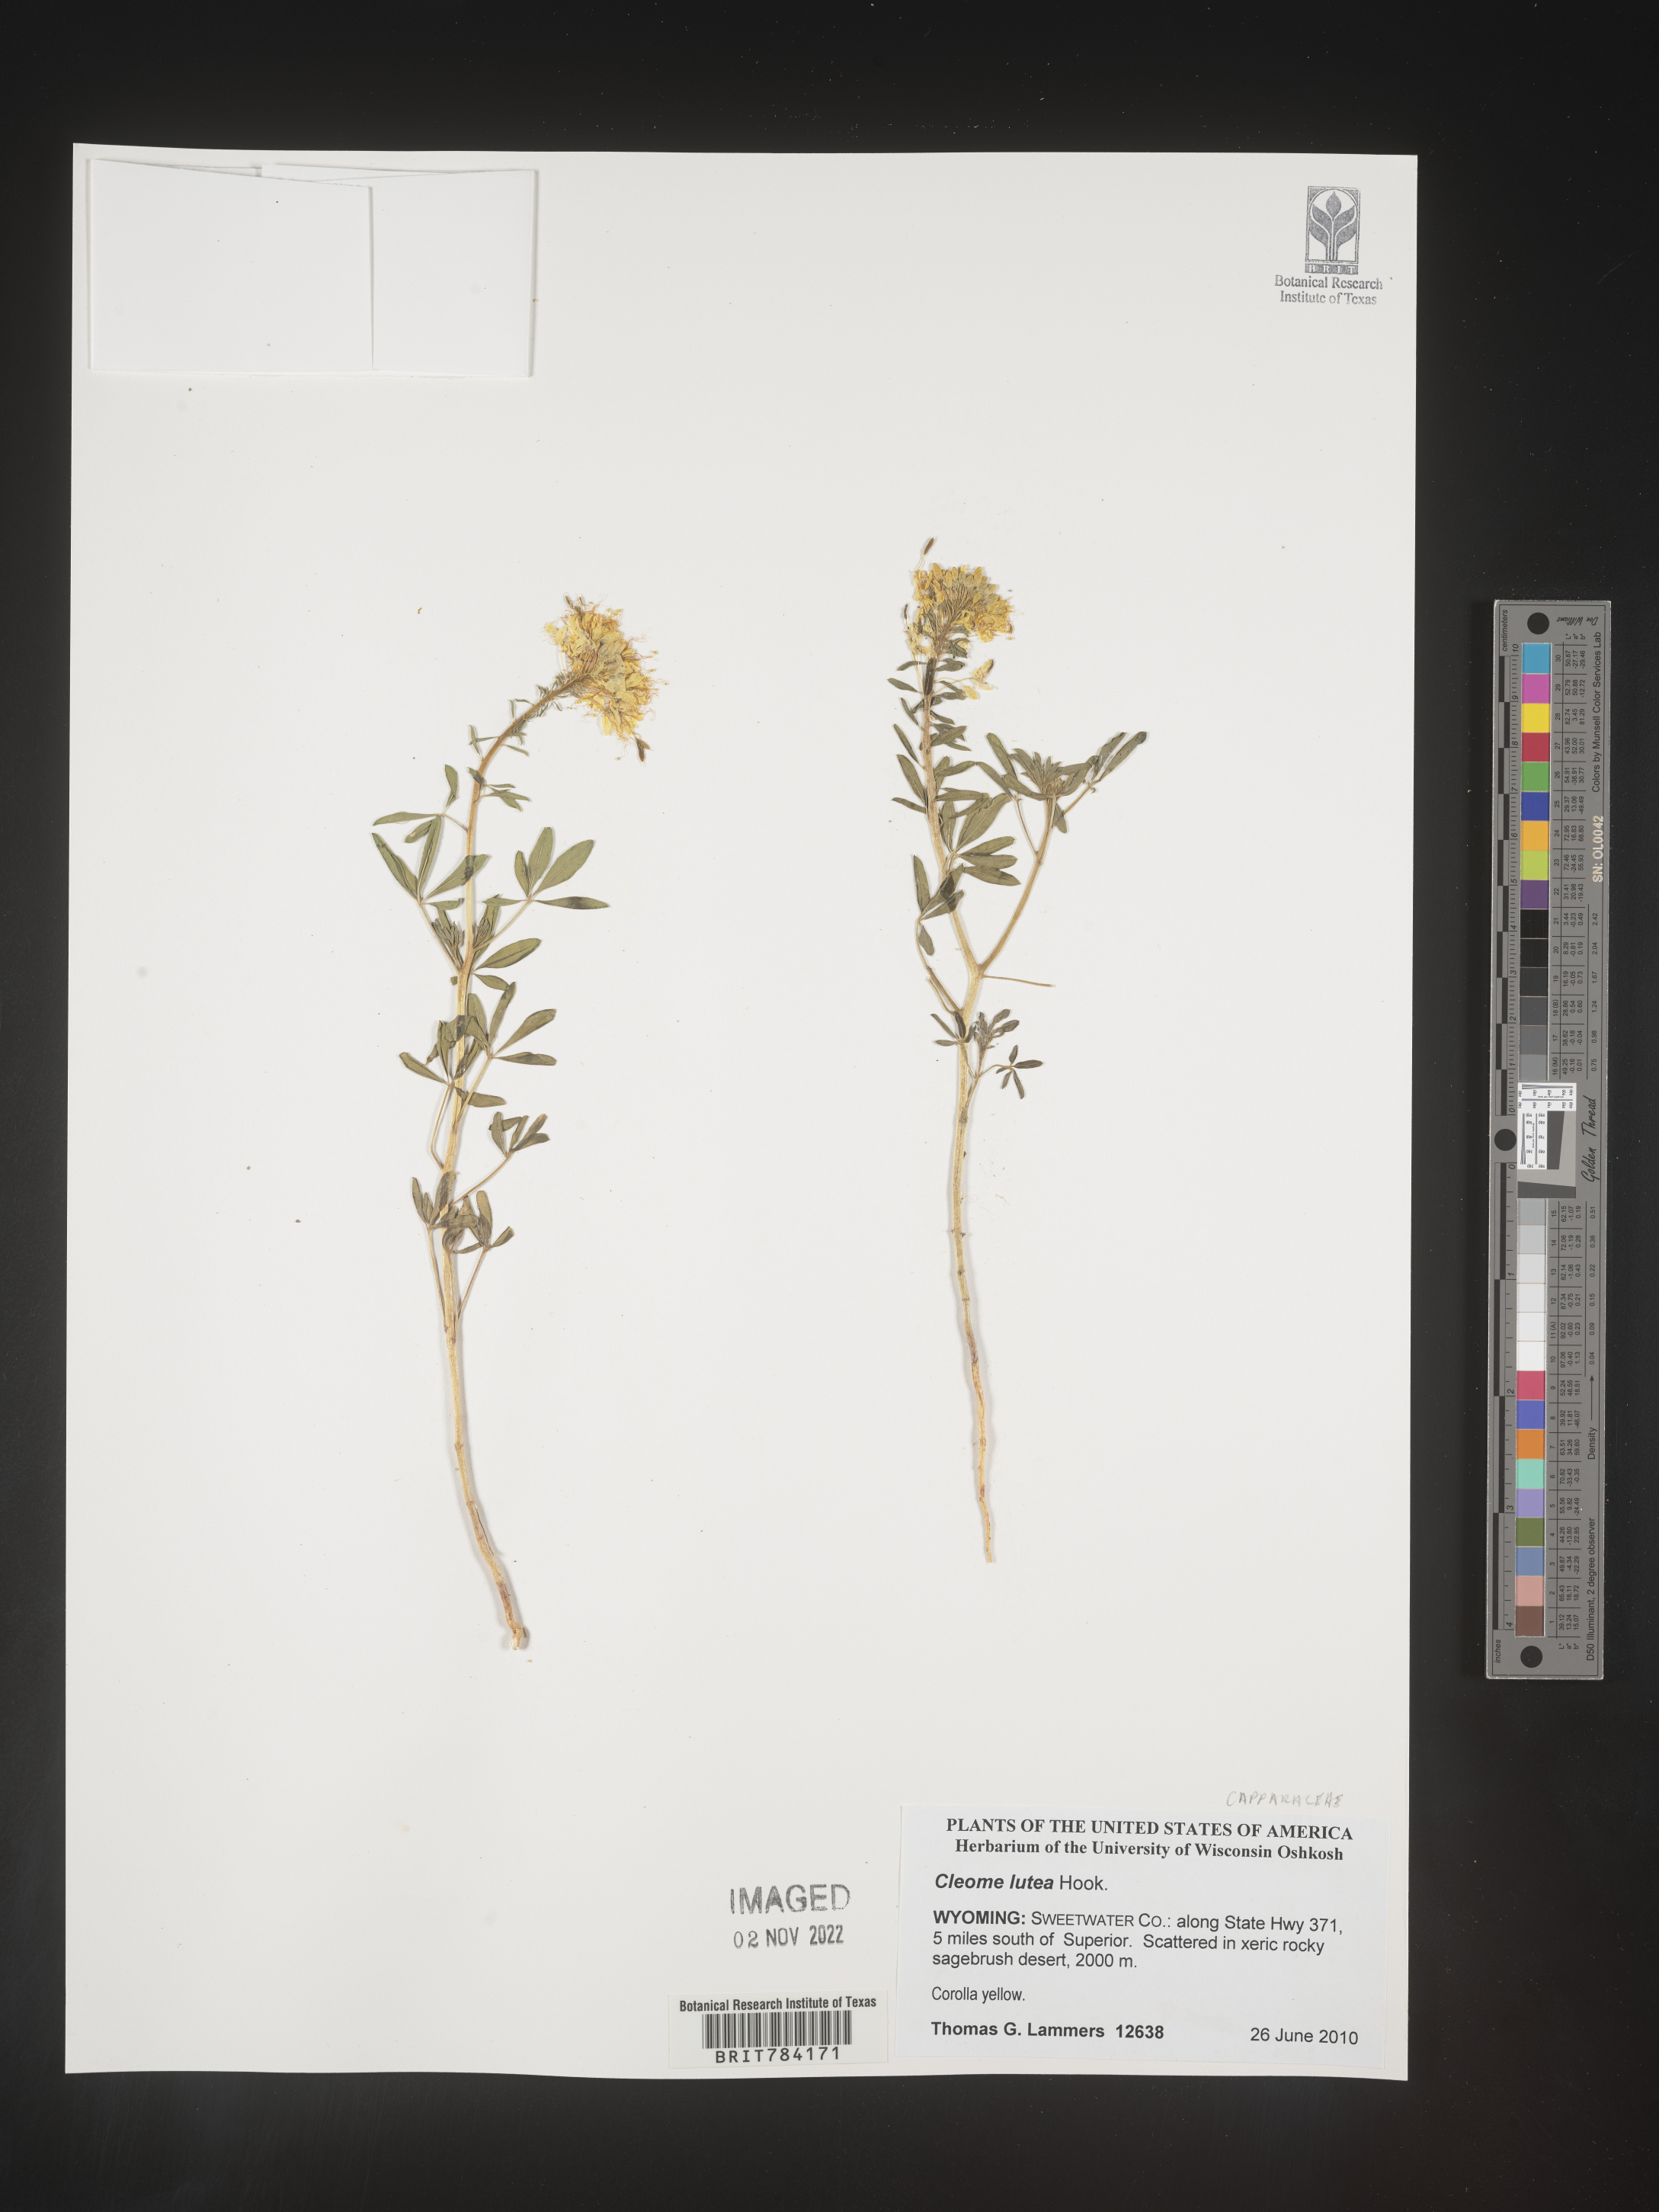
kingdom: Plantae
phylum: Tracheophyta
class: Magnoliopsida
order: Brassicales
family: Cleomaceae
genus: Cleomella
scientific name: Cleomella lutea
